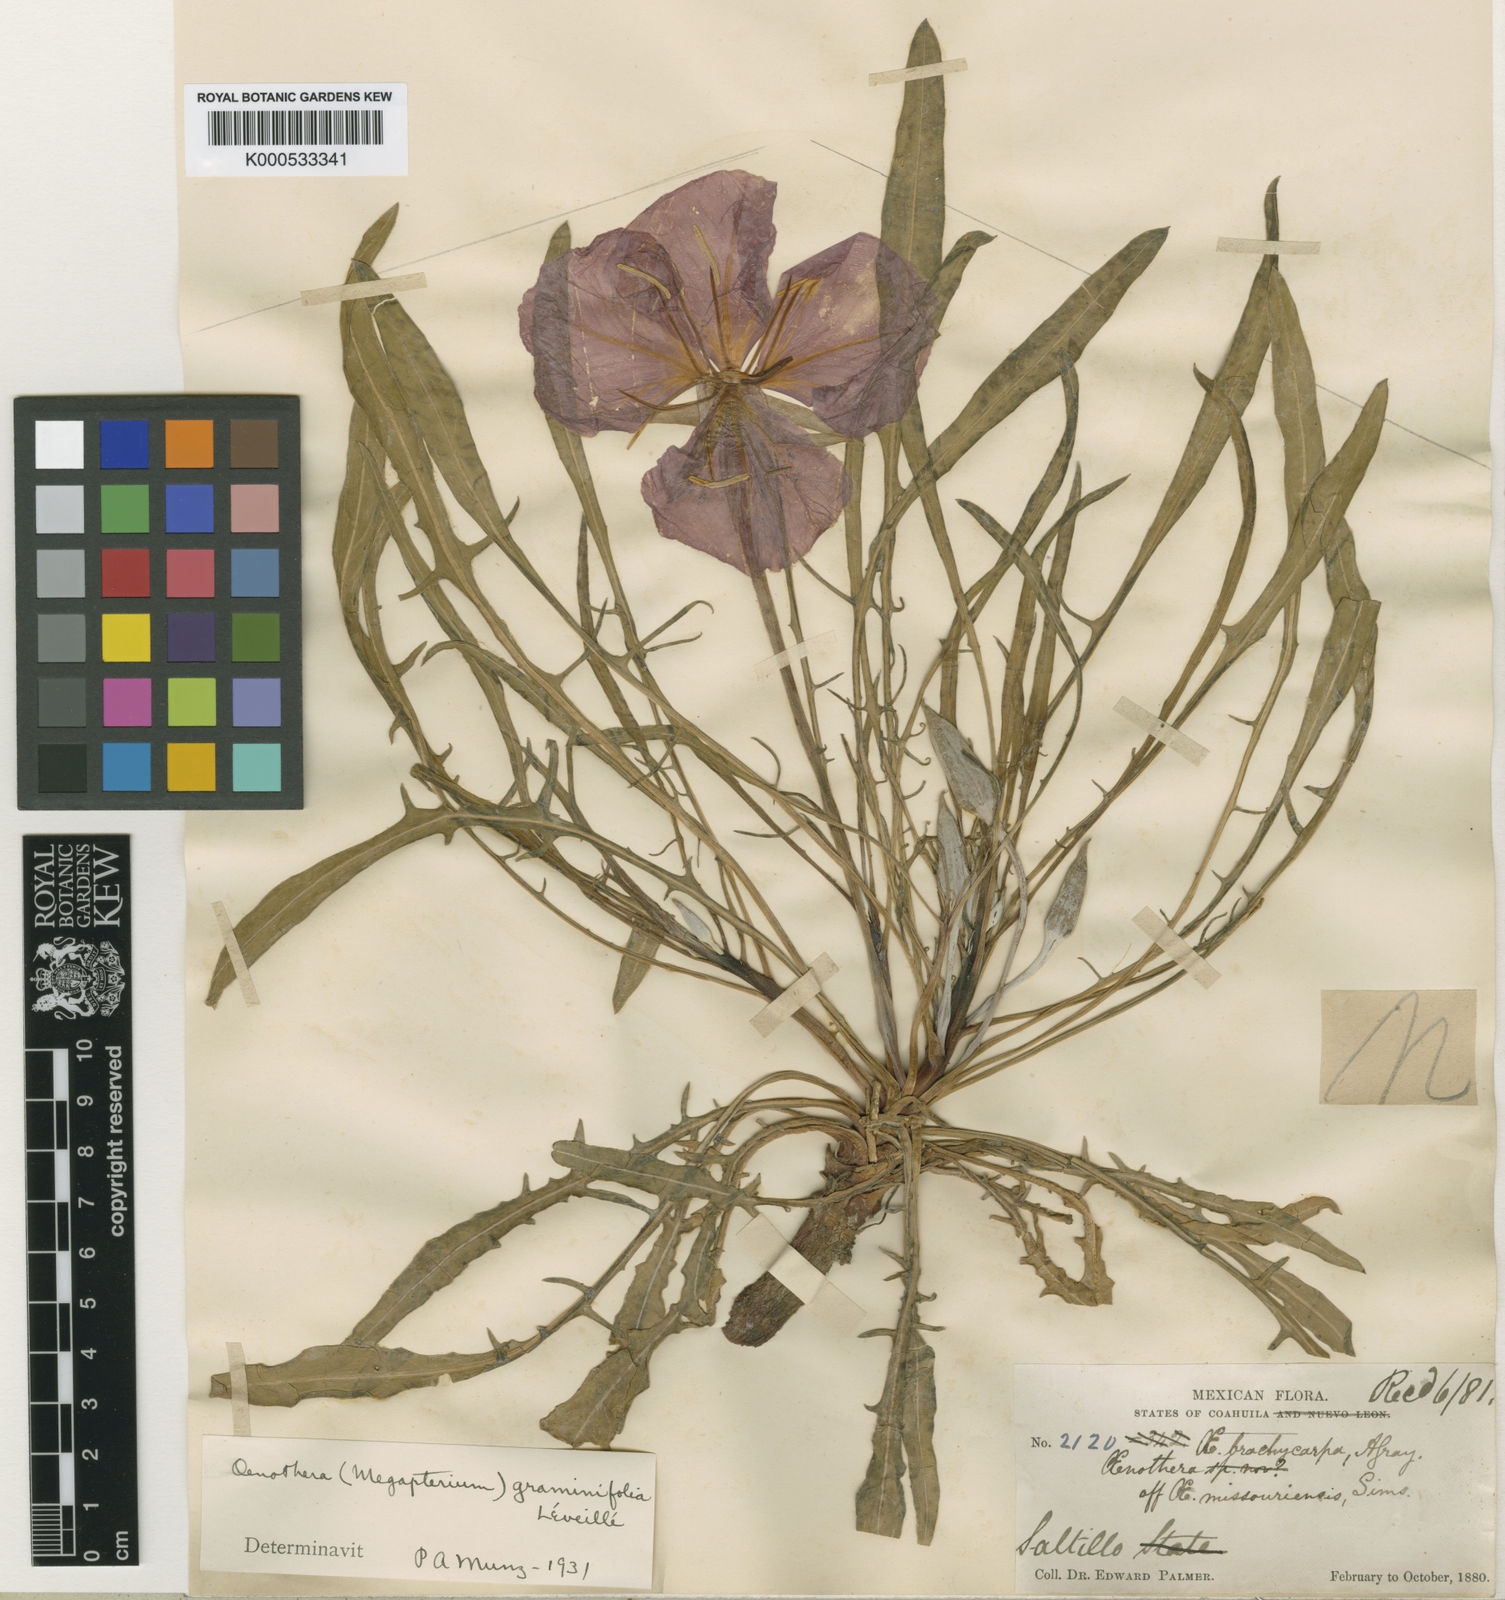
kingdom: Plantae
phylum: Tracheophyta
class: Magnoliopsida
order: Myrtales
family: Onagraceae
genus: Oenothera
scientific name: Oenothera
